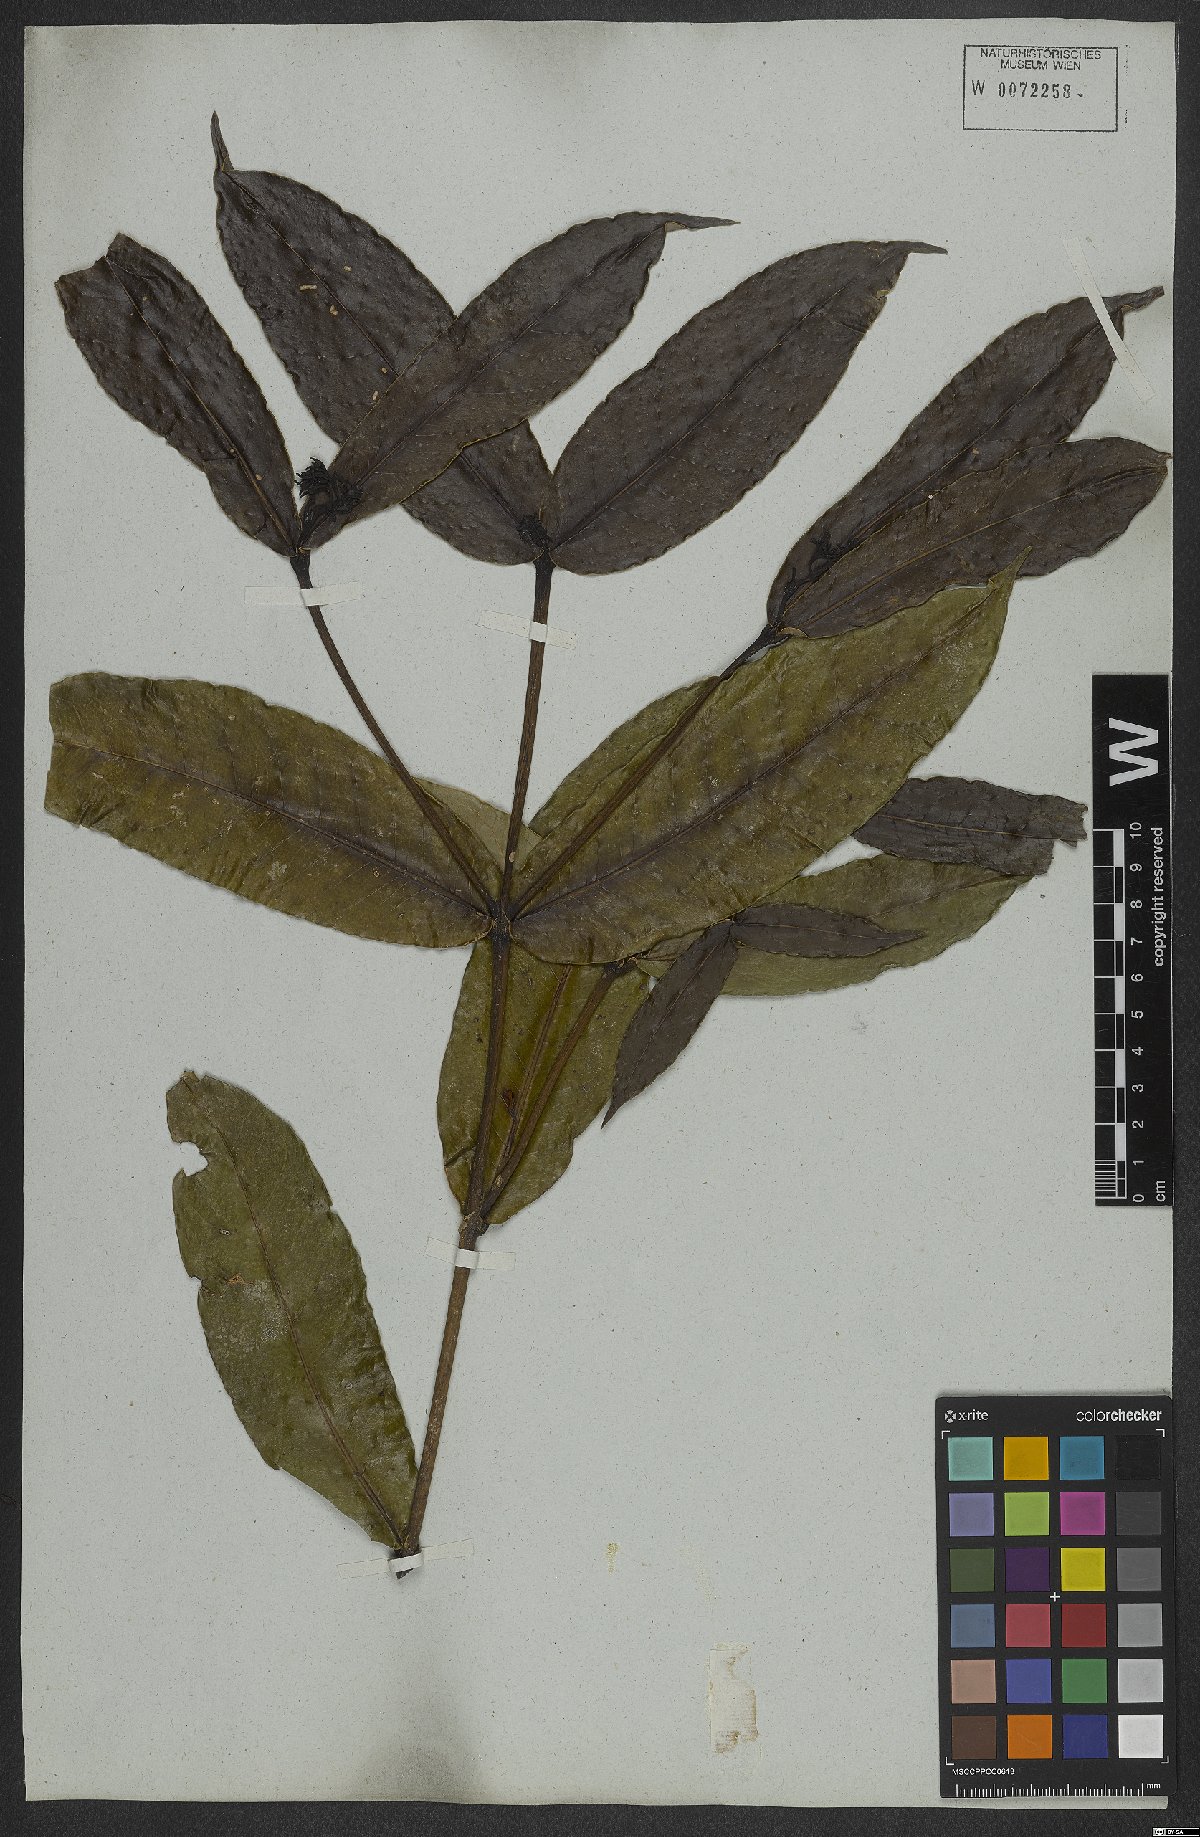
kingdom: Plantae
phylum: Tracheophyta
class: Magnoliopsida
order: Gentianales
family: Rubiaceae
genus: Faramea
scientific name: Faramea martiana
